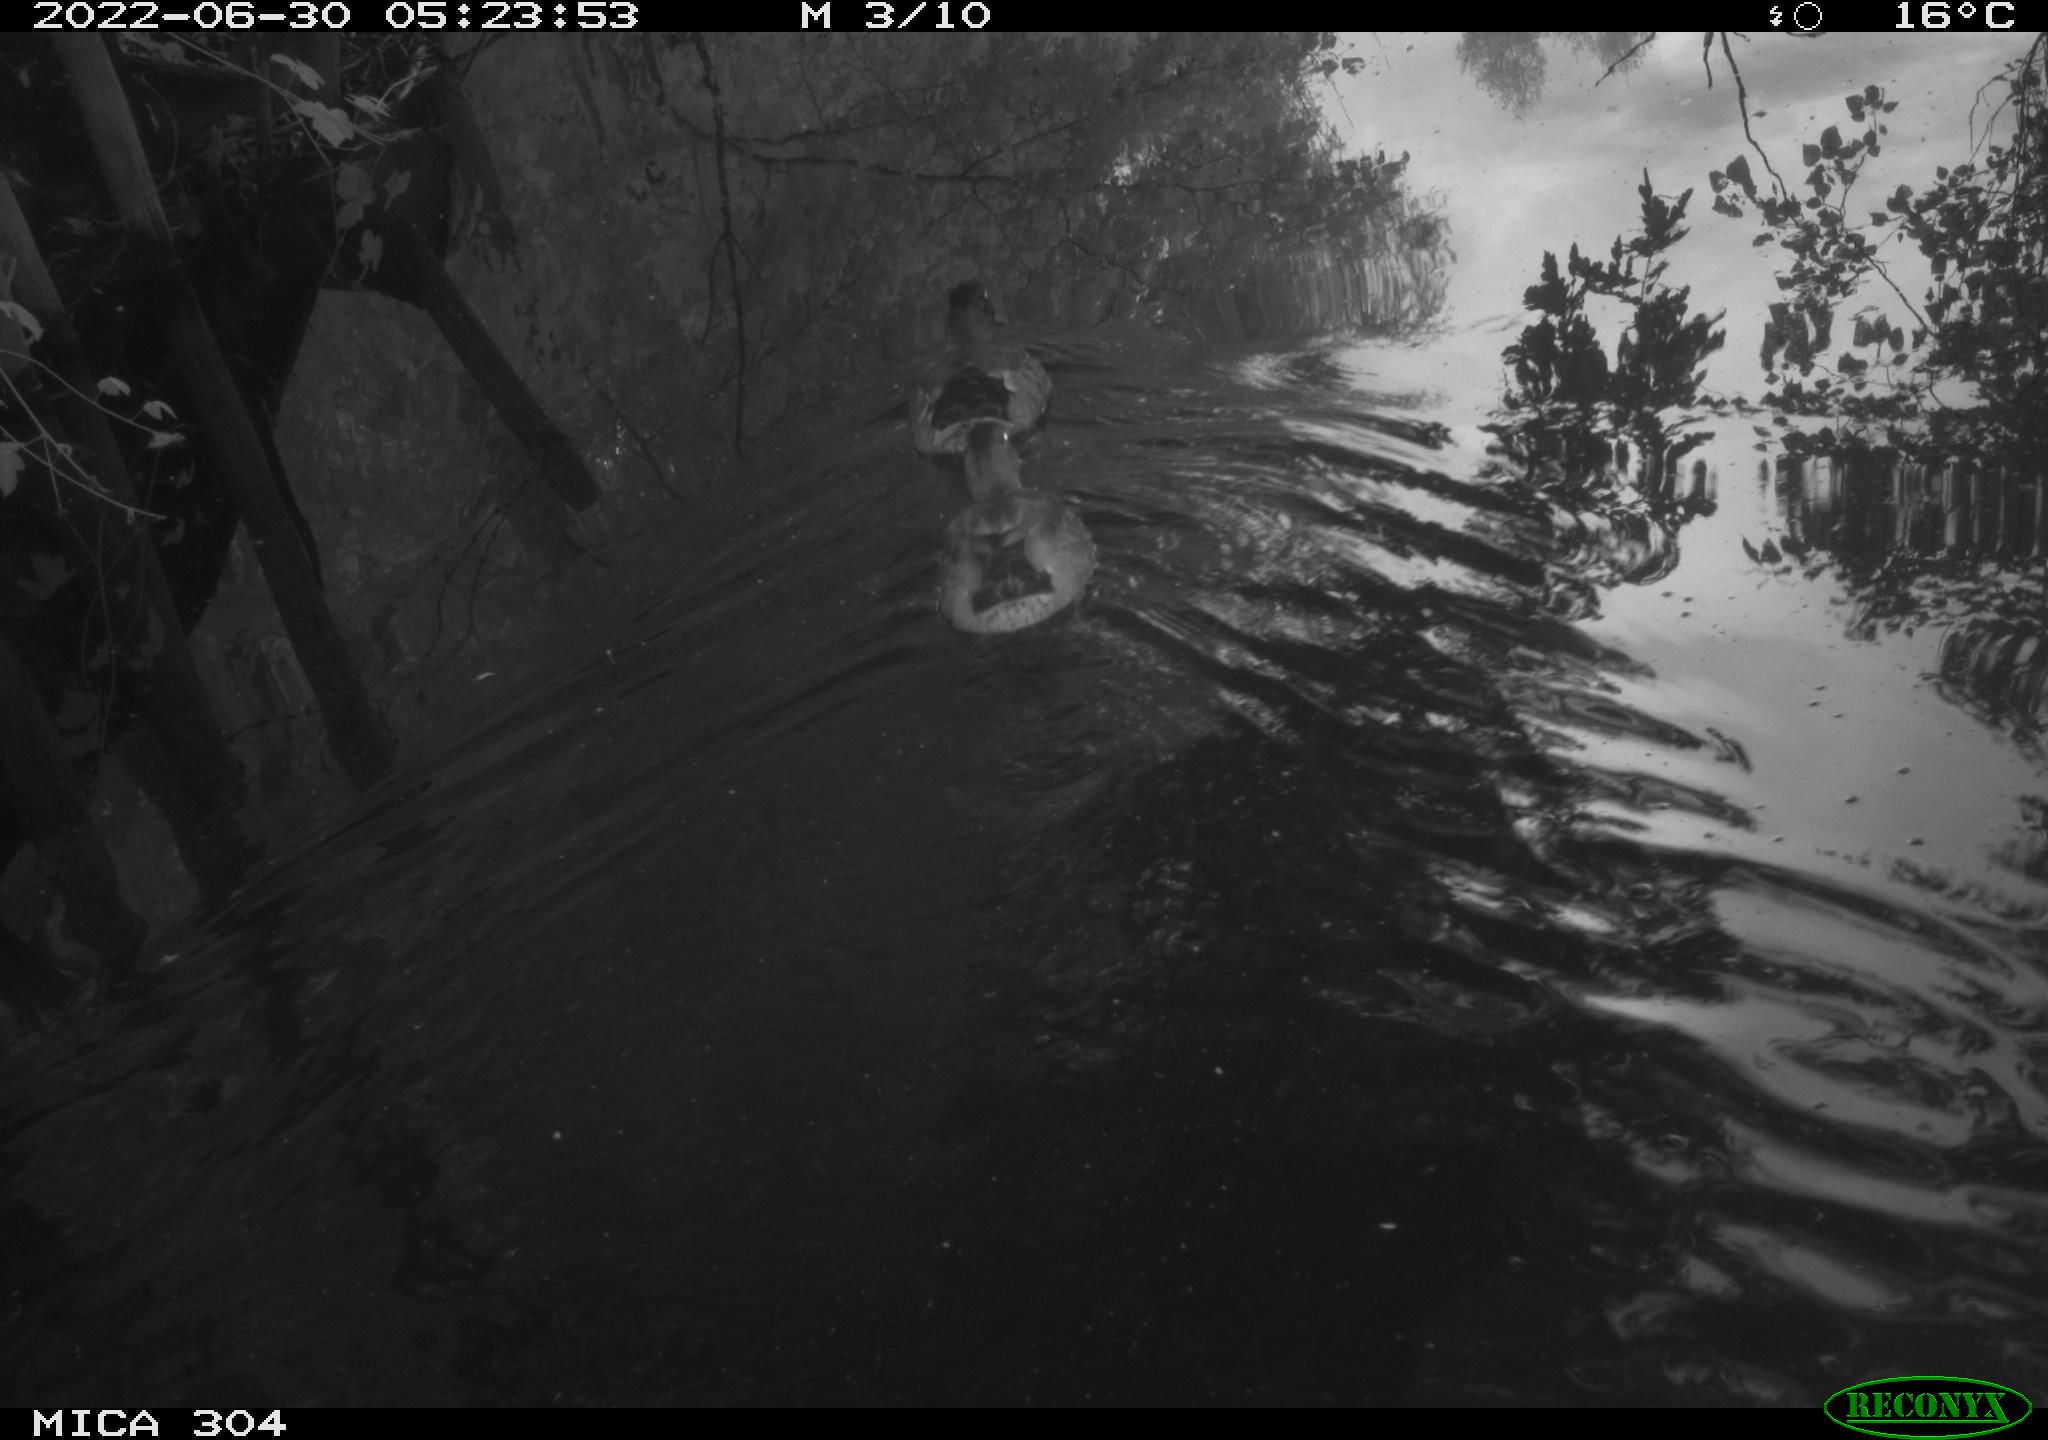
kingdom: Animalia
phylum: Chordata
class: Aves
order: Anseriformes
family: Anatidae
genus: Anas
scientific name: Anas platyrhynchos
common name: Mallard
